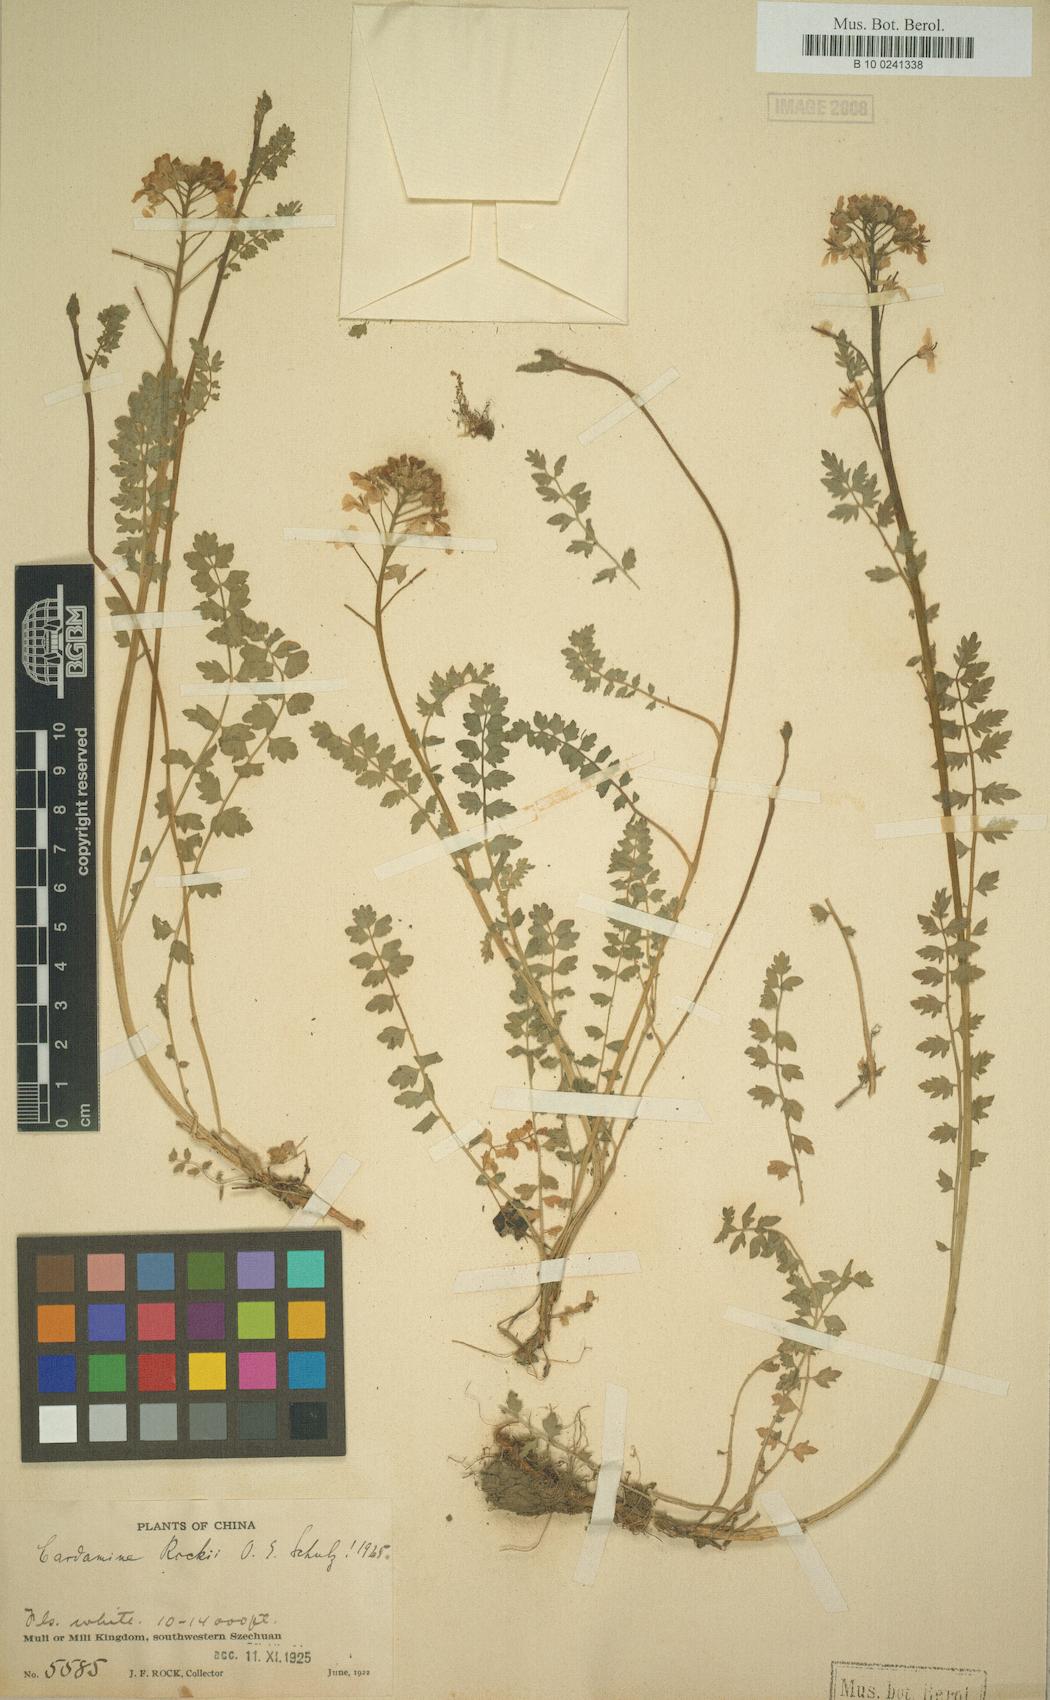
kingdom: Plantae
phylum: Tracheophyta
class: Magnoliopsida
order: Brassicales
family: Brassicaceae
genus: Cardamine
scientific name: Cardamine rockii
